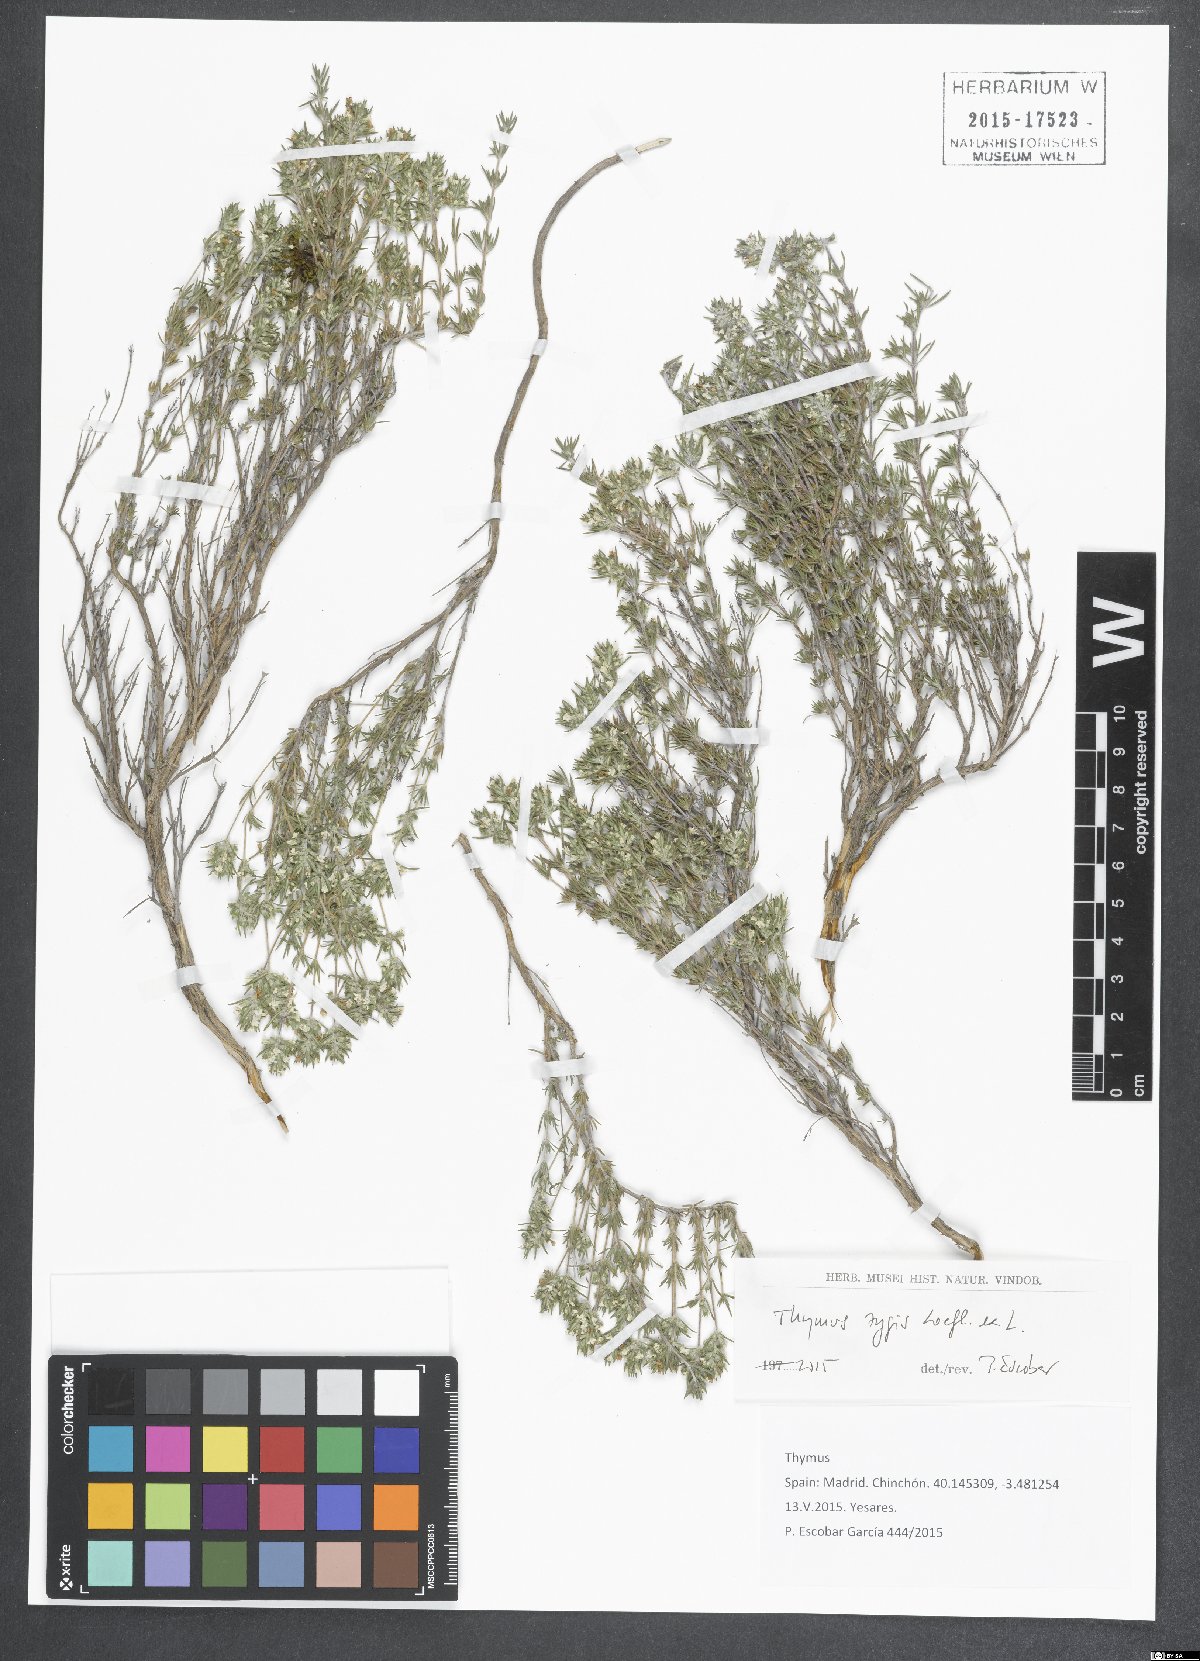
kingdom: Plantae
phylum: Tracheophyta
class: Magnoliopsida
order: Lamiales
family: Lamiaceae
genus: Thymus
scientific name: Thymus zygis
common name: White thyme
